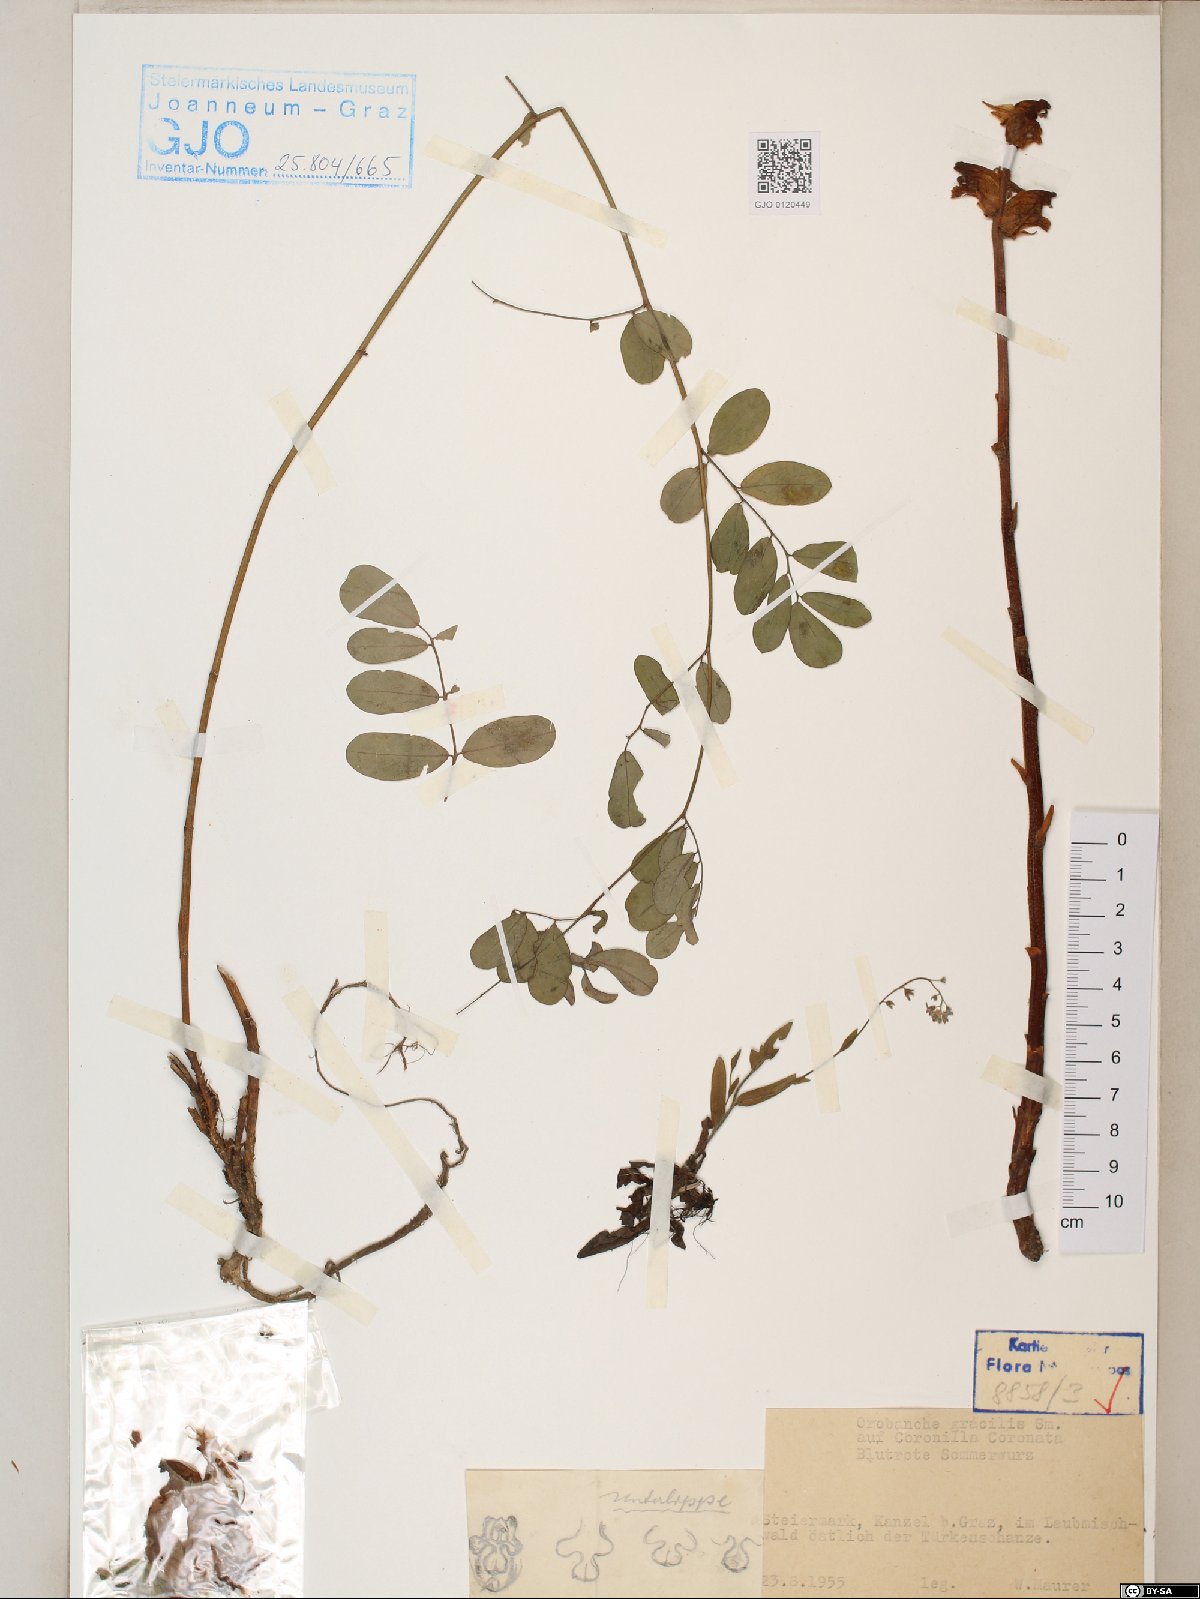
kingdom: Plantae
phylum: Tracheophyta
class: Magnoliopsida
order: Lamiales
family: Orobanchaceae
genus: Orobanche
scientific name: Orobanche gracilis
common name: Slender broomrape
